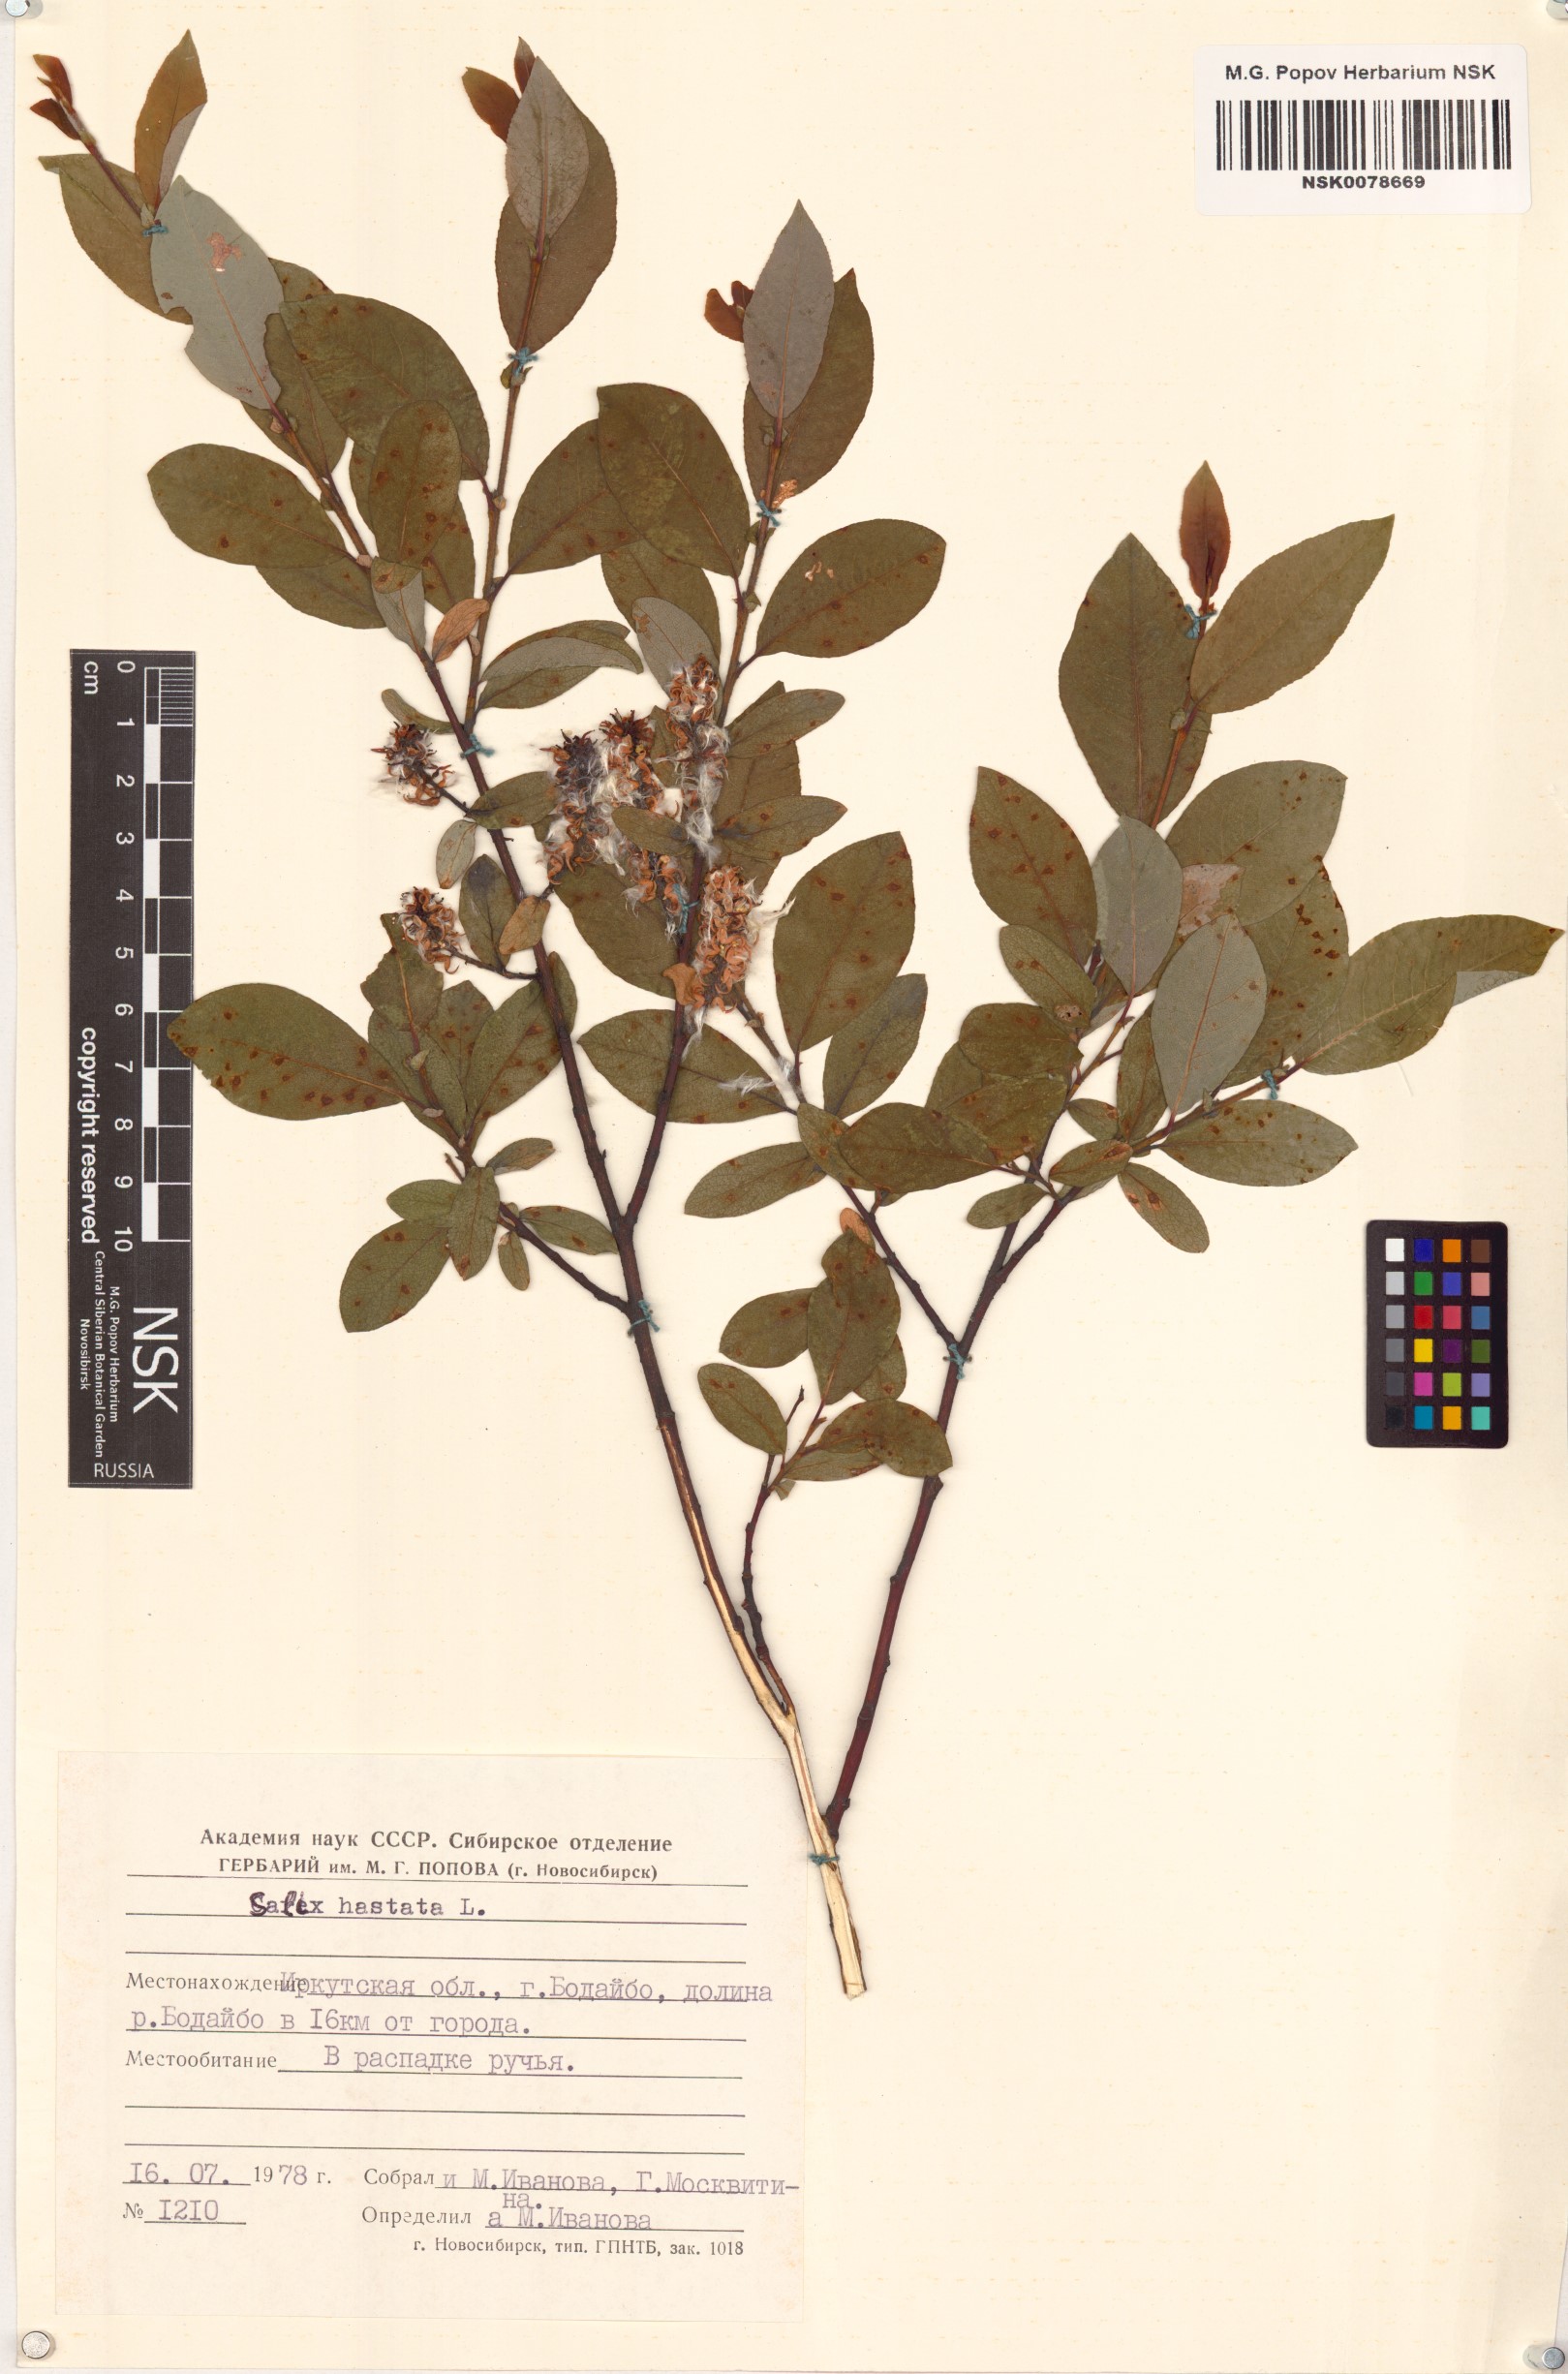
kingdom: Plantae
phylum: Tracheophyta
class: Magnoliopsida
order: Malpighiales
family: Salicaceae
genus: Salix
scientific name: Salix hastata
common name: Halberd willow
